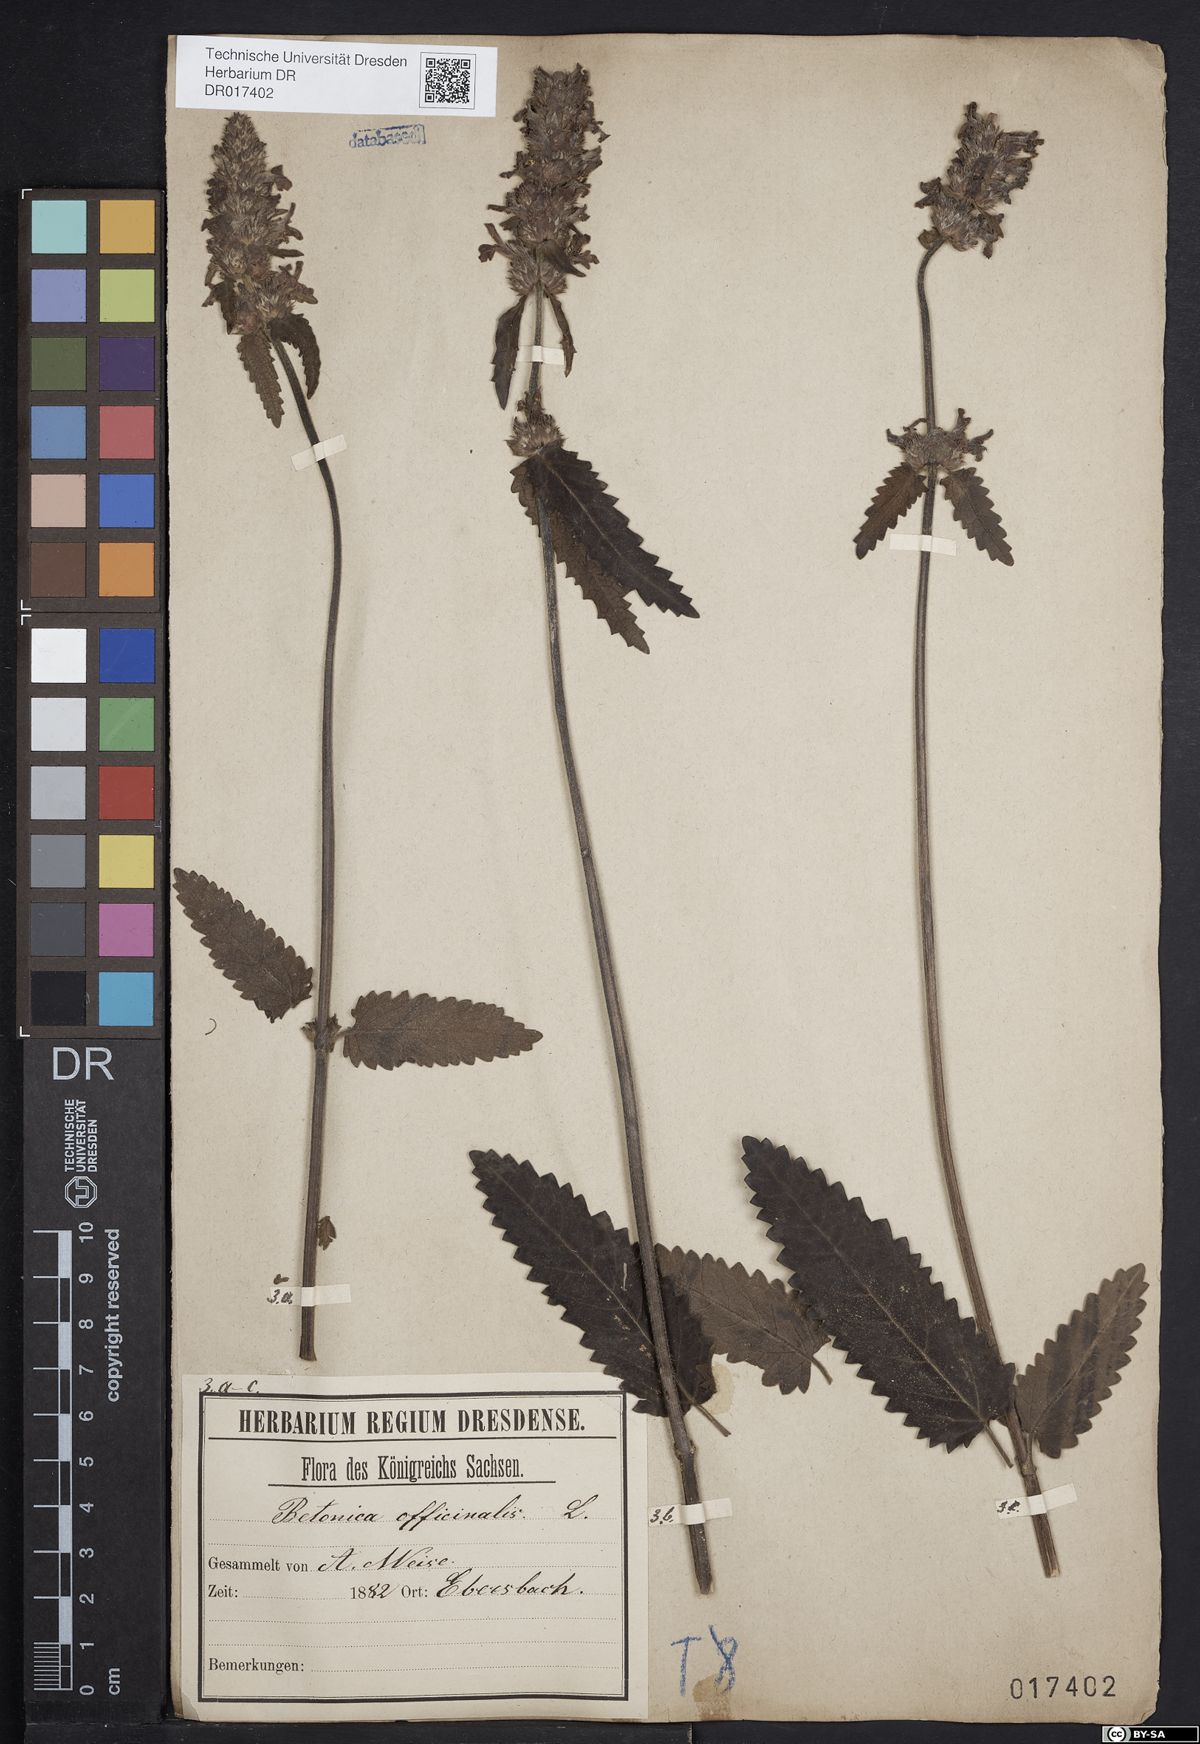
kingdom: Plantae
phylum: Tracheophyta
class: Magnoliopsida
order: Lamiales
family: Lamiaceae
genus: Betonica
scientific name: Betonica officinalis
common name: Bishop's-wort
